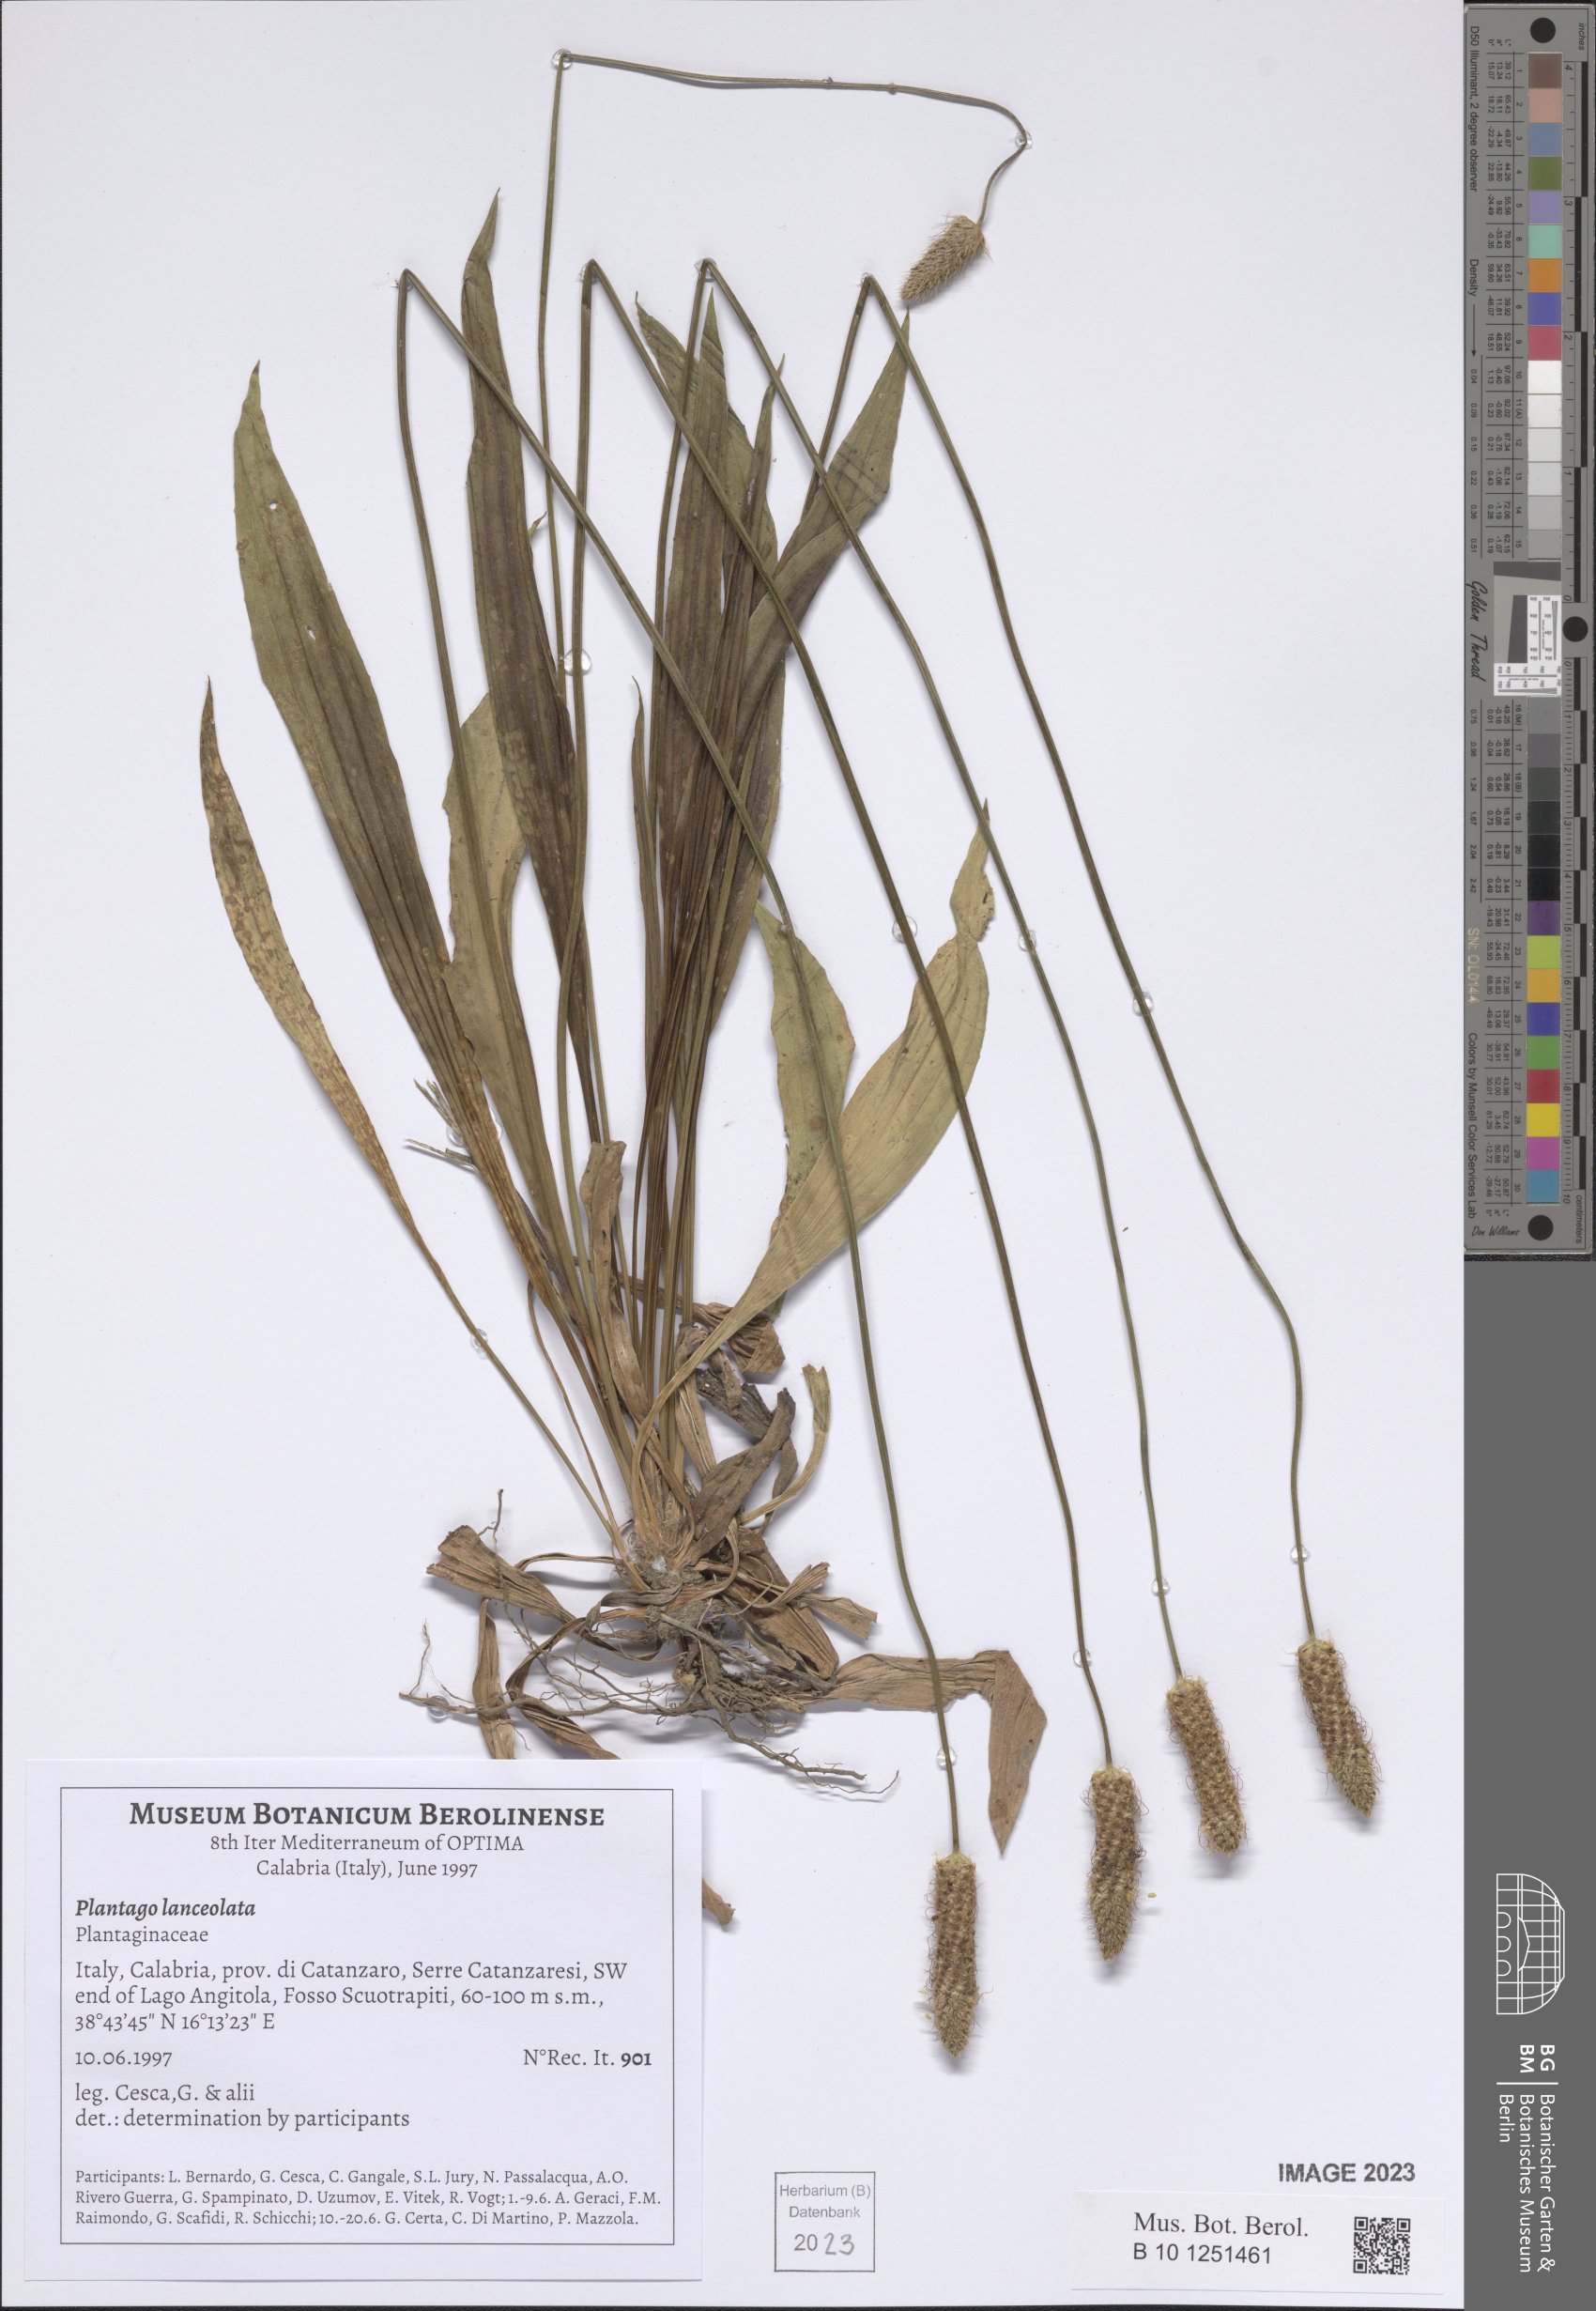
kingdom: Plantae
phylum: Tracheophyta
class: Magnoliopsida
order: Lamiales
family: Plantaginaceae
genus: Plantago
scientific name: Plantago lanceolata
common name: Ribwort plantain
